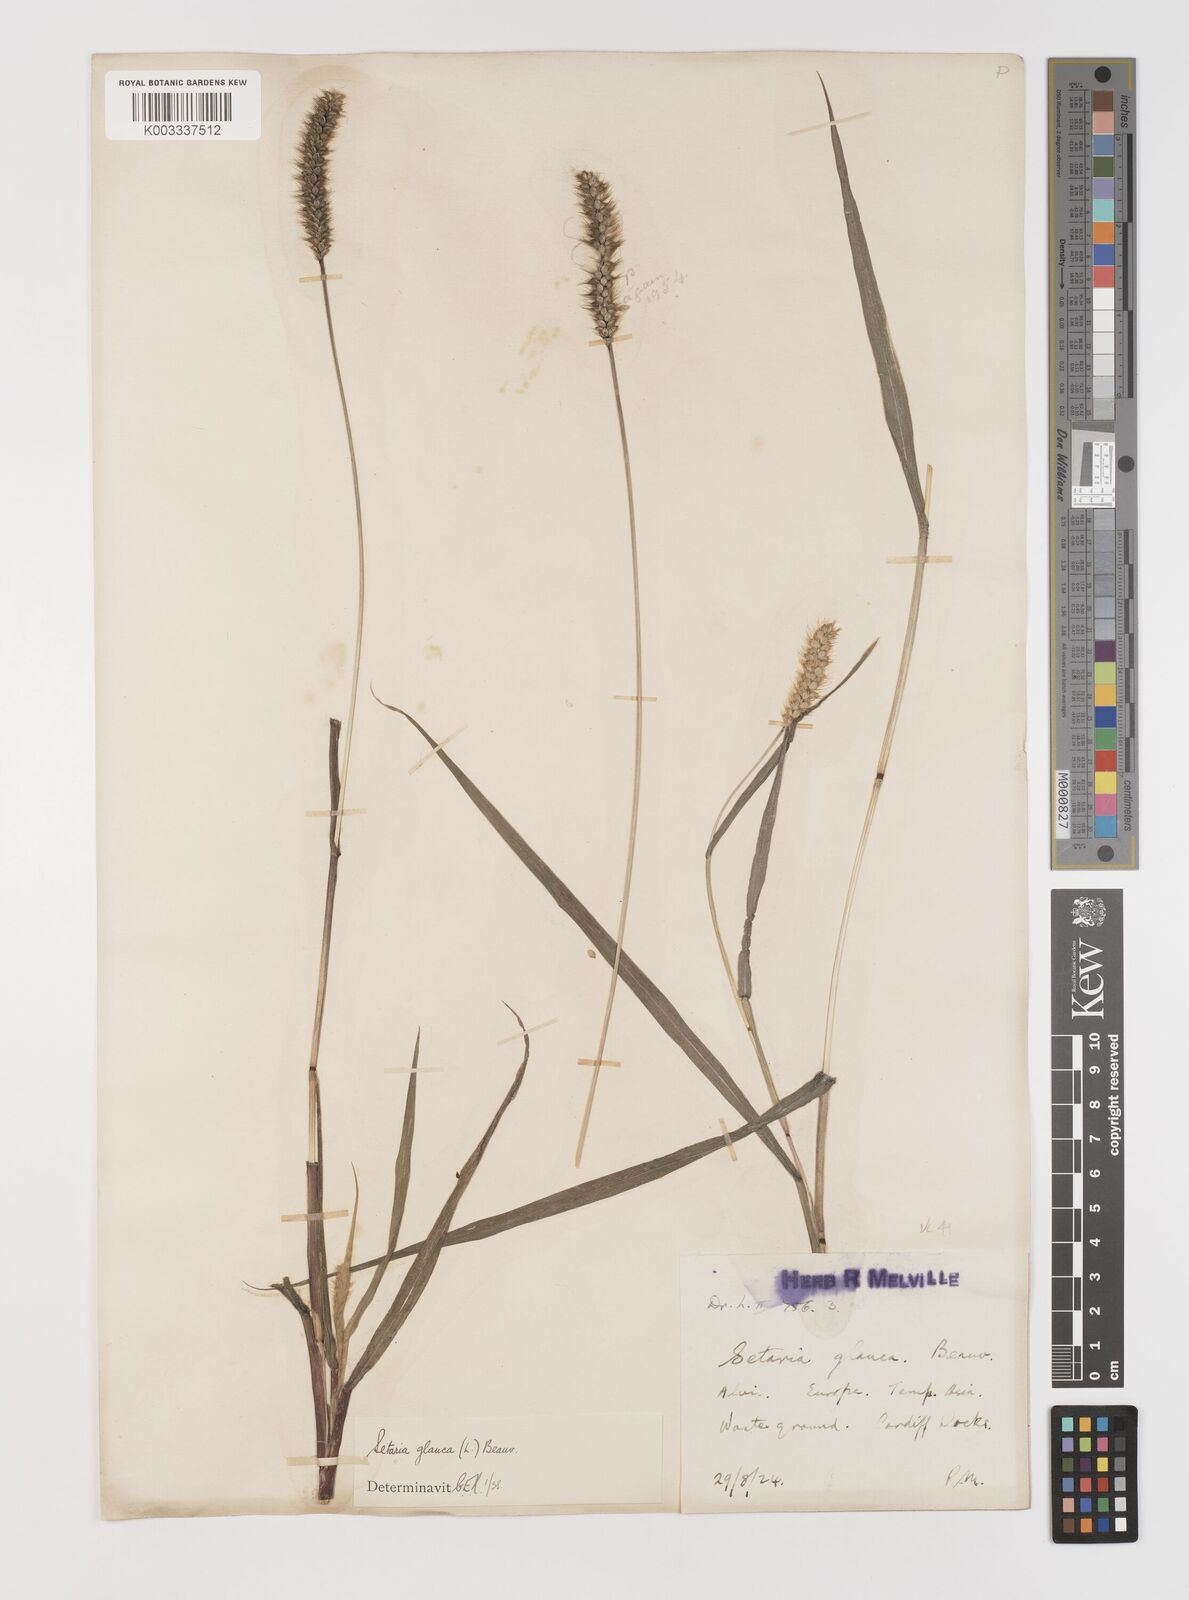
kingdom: Plantae
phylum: Tracheophyta
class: Liliopsida
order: Poales
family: Poaceae
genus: Setaria
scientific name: Setaria pumila
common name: Yellow bristle-grass
